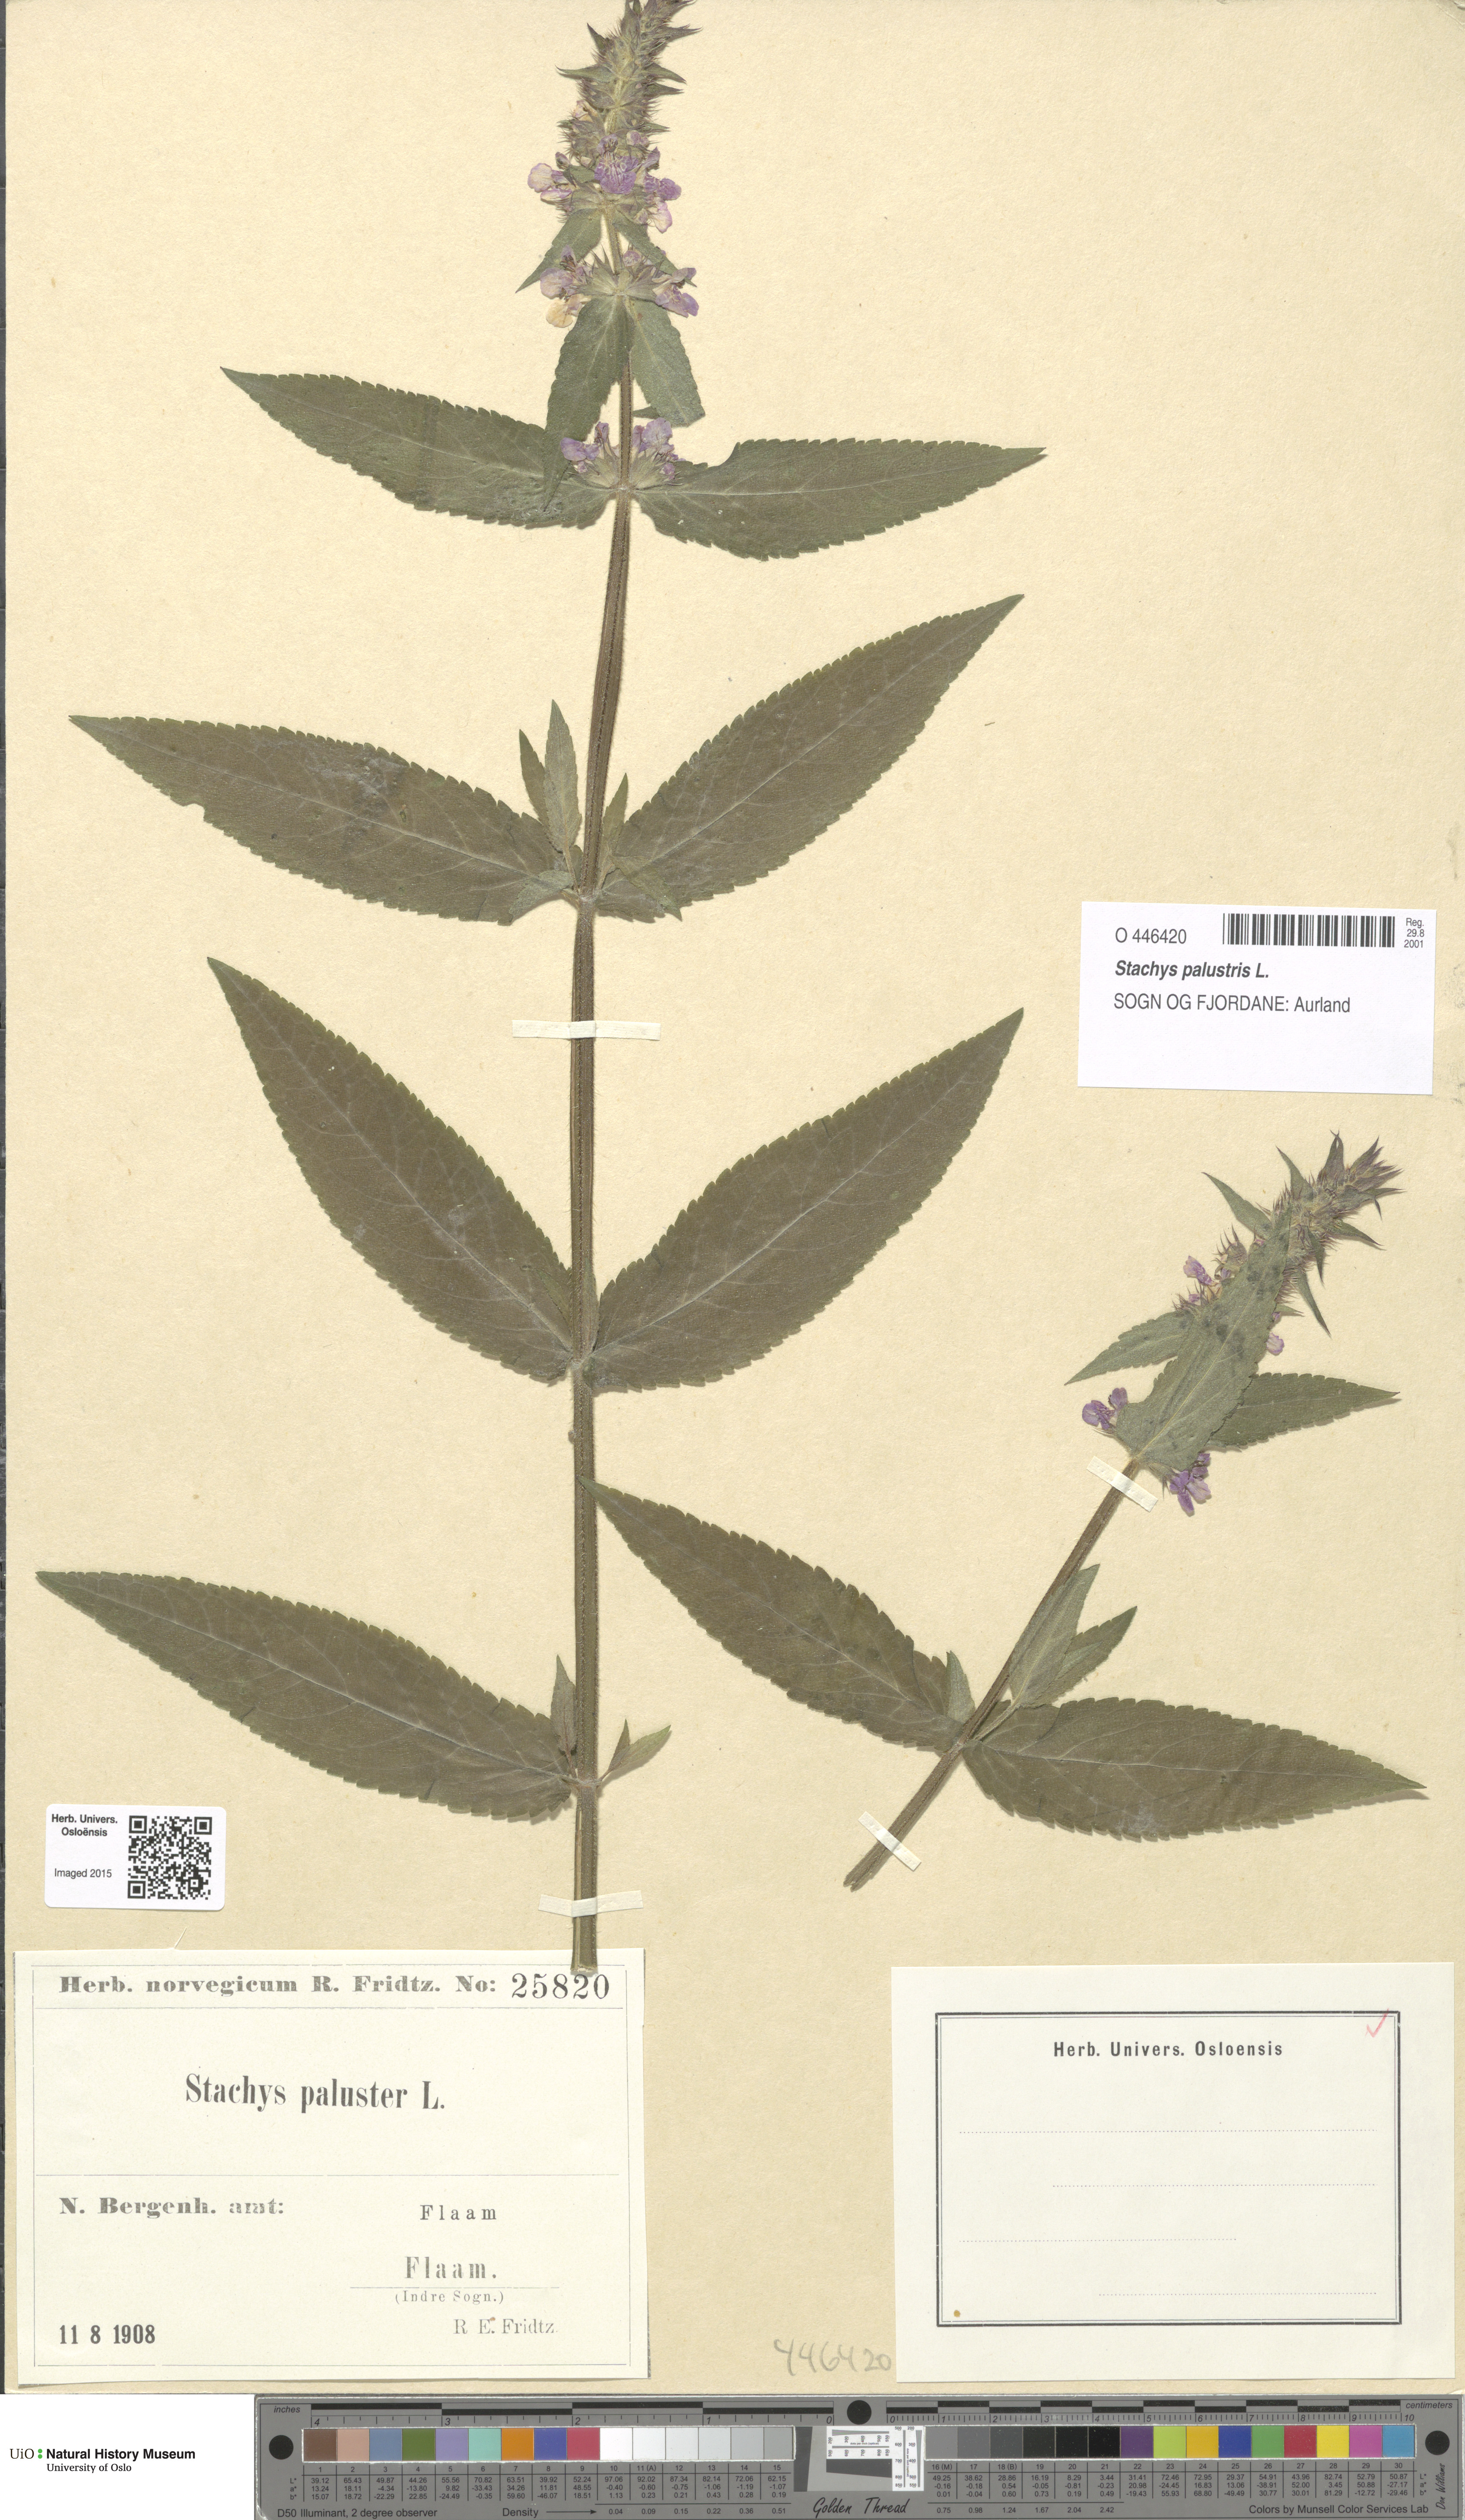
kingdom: Plantae
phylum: Tracheophyta
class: Magnoliopsida
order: Lamiales
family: Lamiaceae
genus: Stachys
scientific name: Stachys palustris
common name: Marsh woundwort
